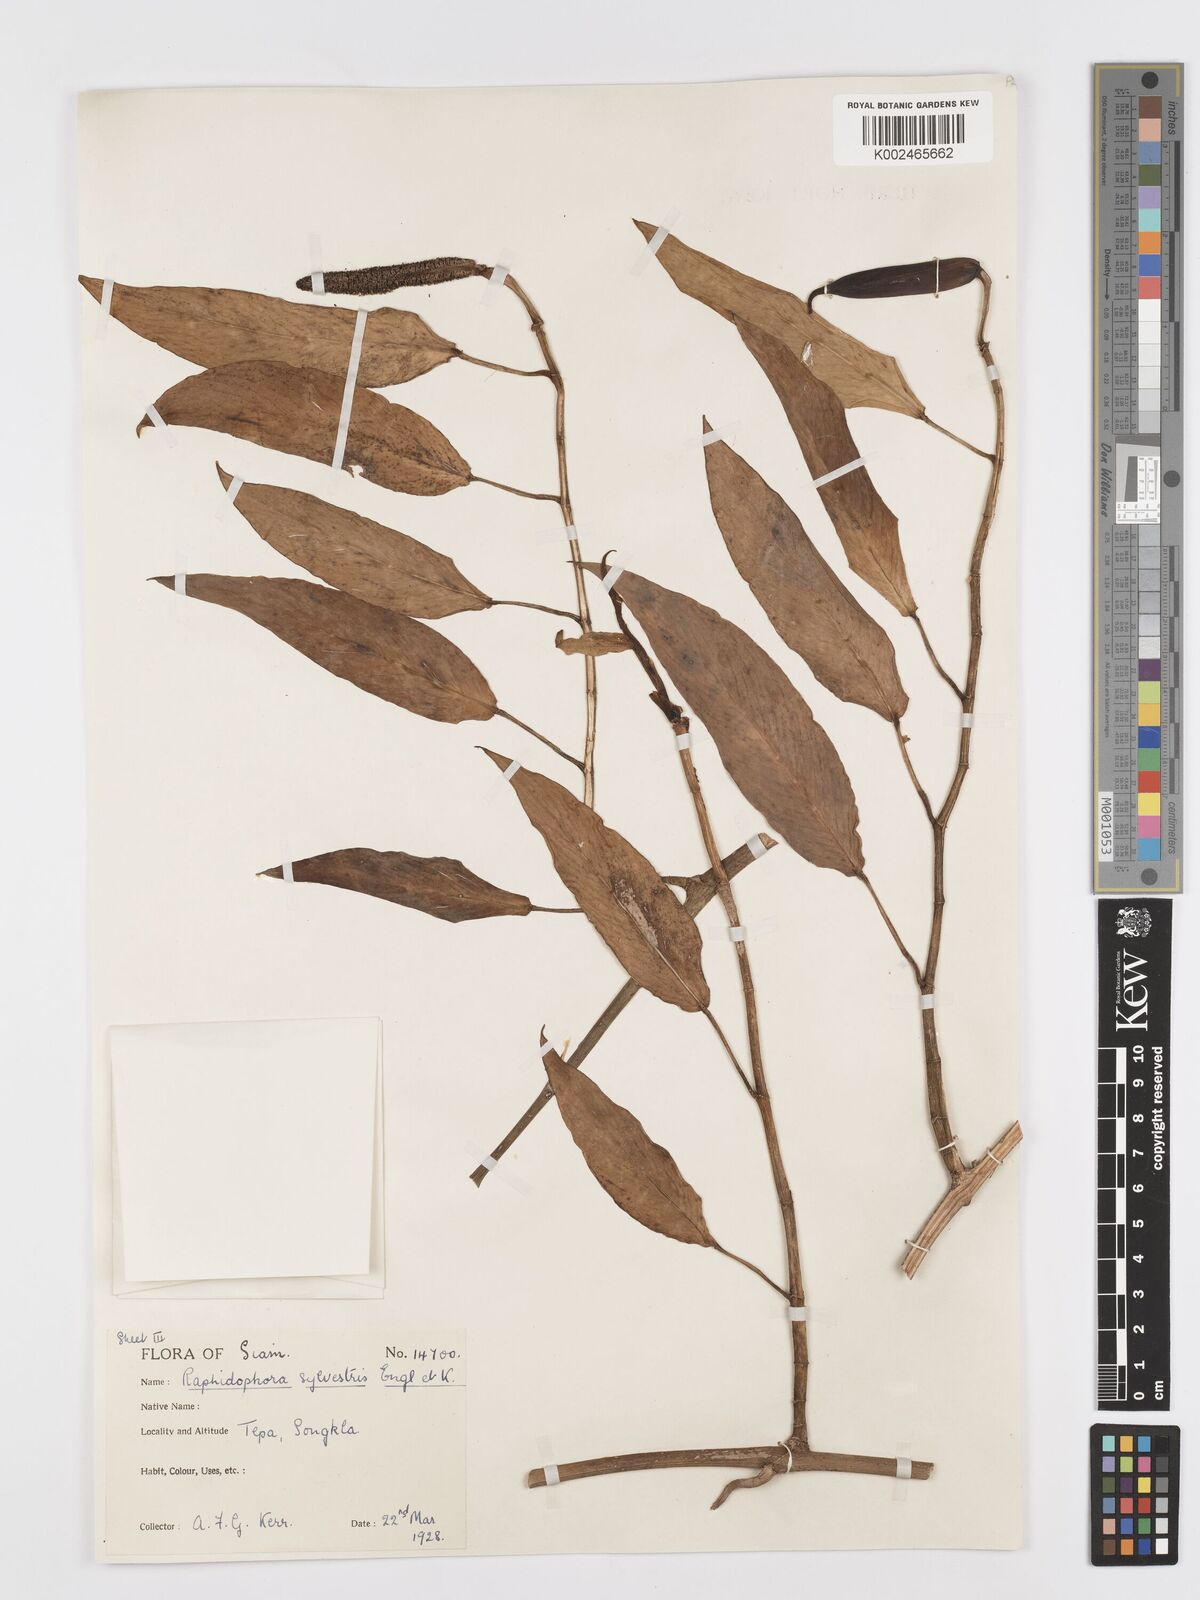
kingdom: Plantae
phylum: Tracheophyta
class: Liliopsida
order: Alismatales
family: Araceae
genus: Rhaphidophora
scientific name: Rhaphidophora minor
